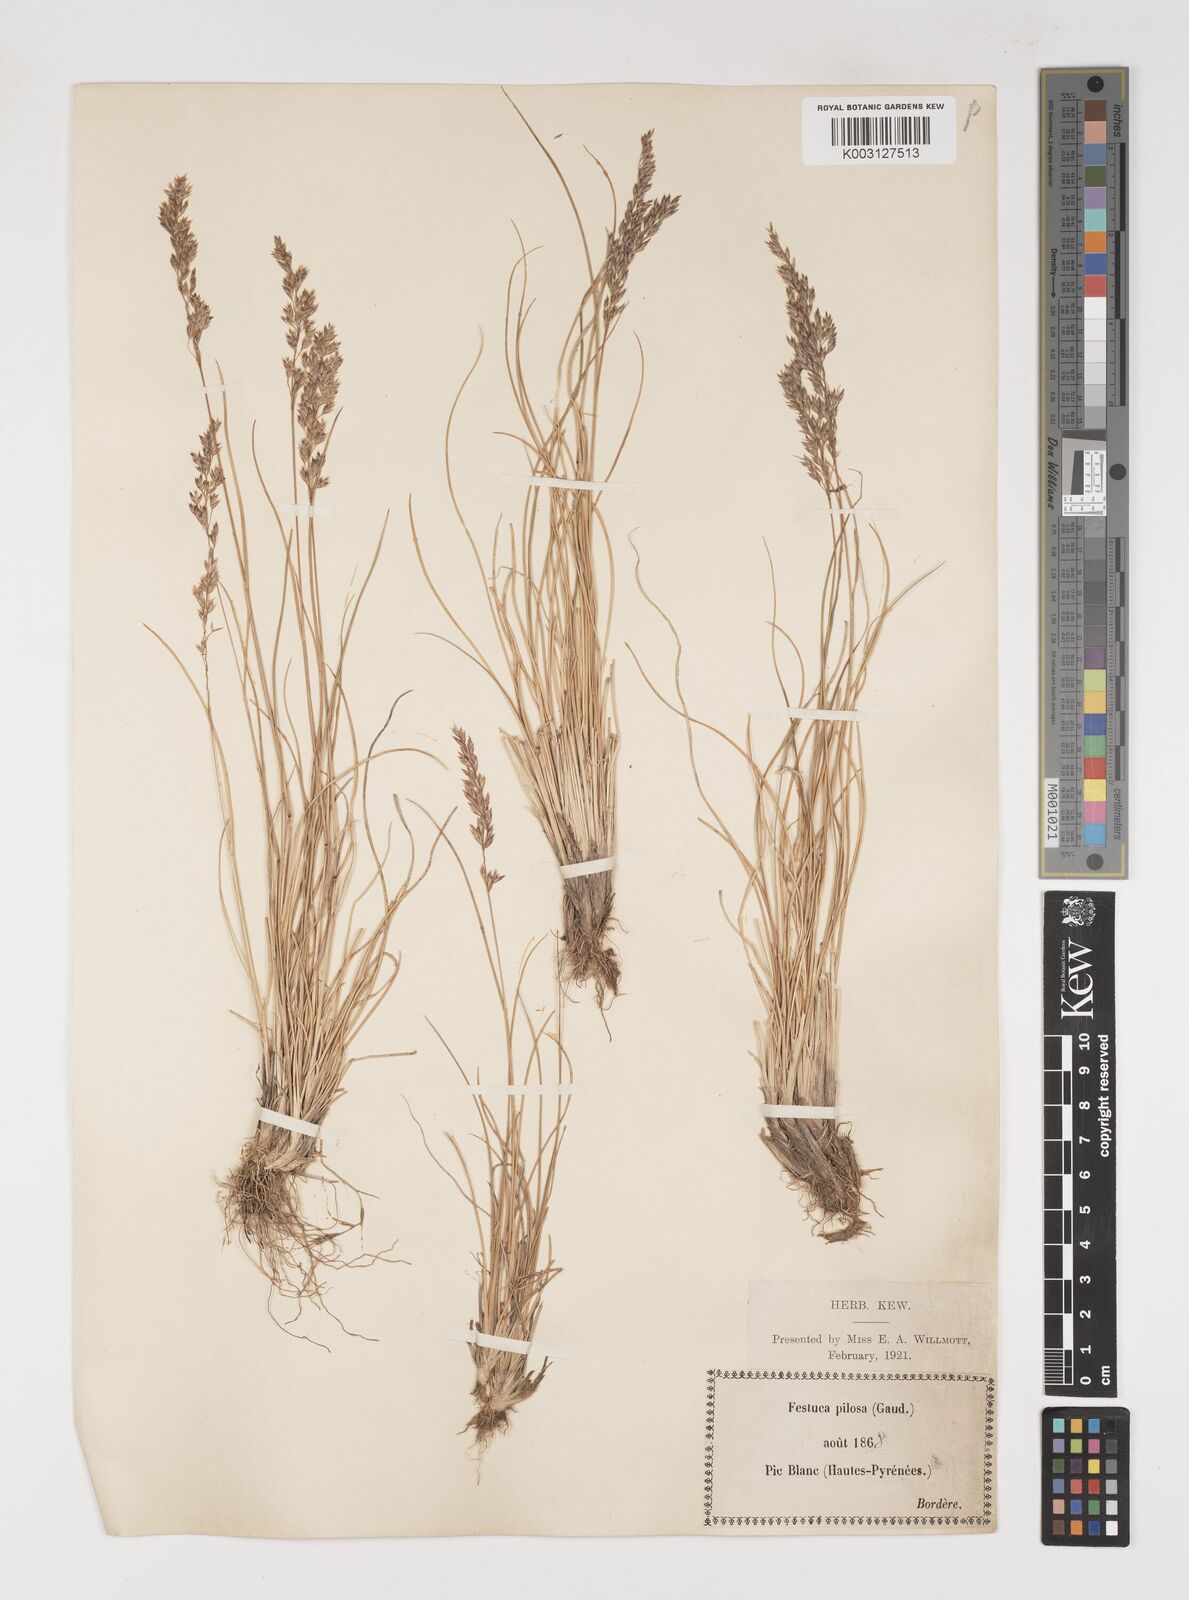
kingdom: Plantae
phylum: Tracheophyta
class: Liliopsida
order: Poales
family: Poaceae
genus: Bellardiochloa
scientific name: Bellardiochloa variegata
